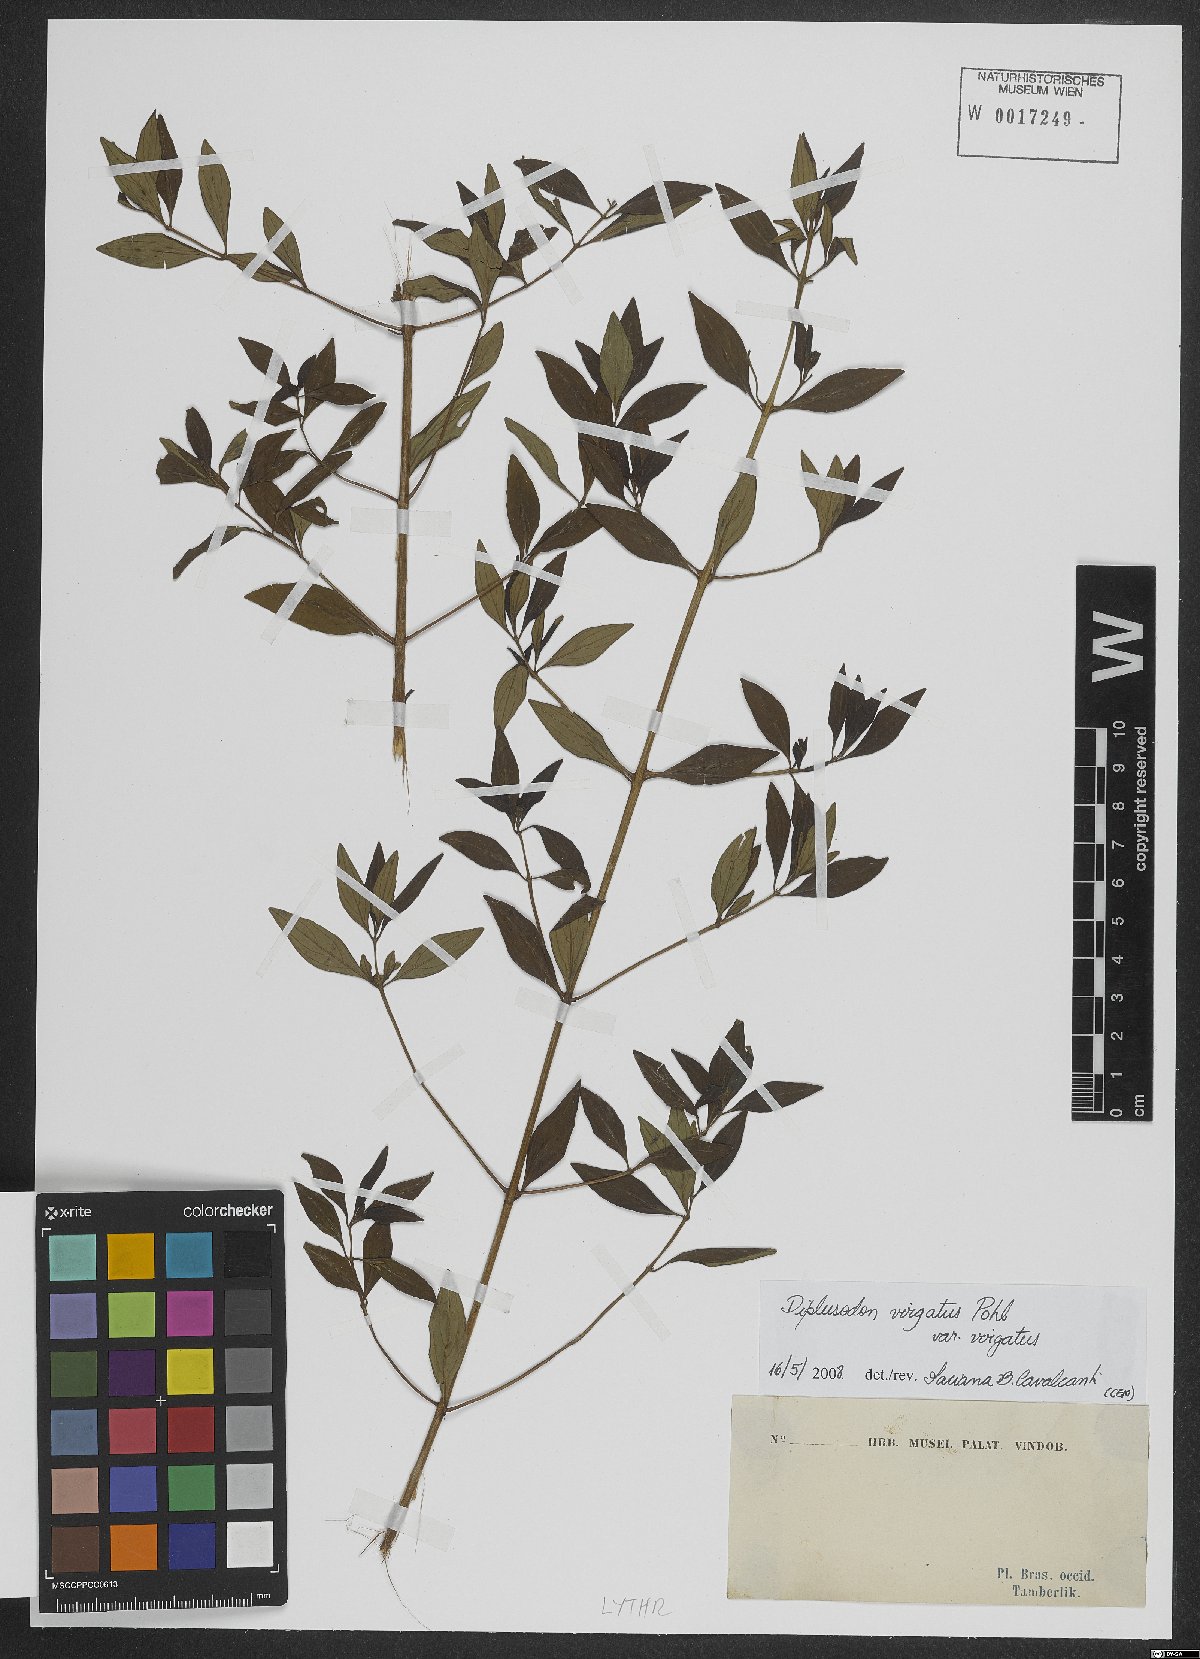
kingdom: Plantae
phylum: Tracheophyta
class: Magnoliopsida
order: Myrtales
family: Lythraceae
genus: Diplusodon
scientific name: Diplusodon virgatus
